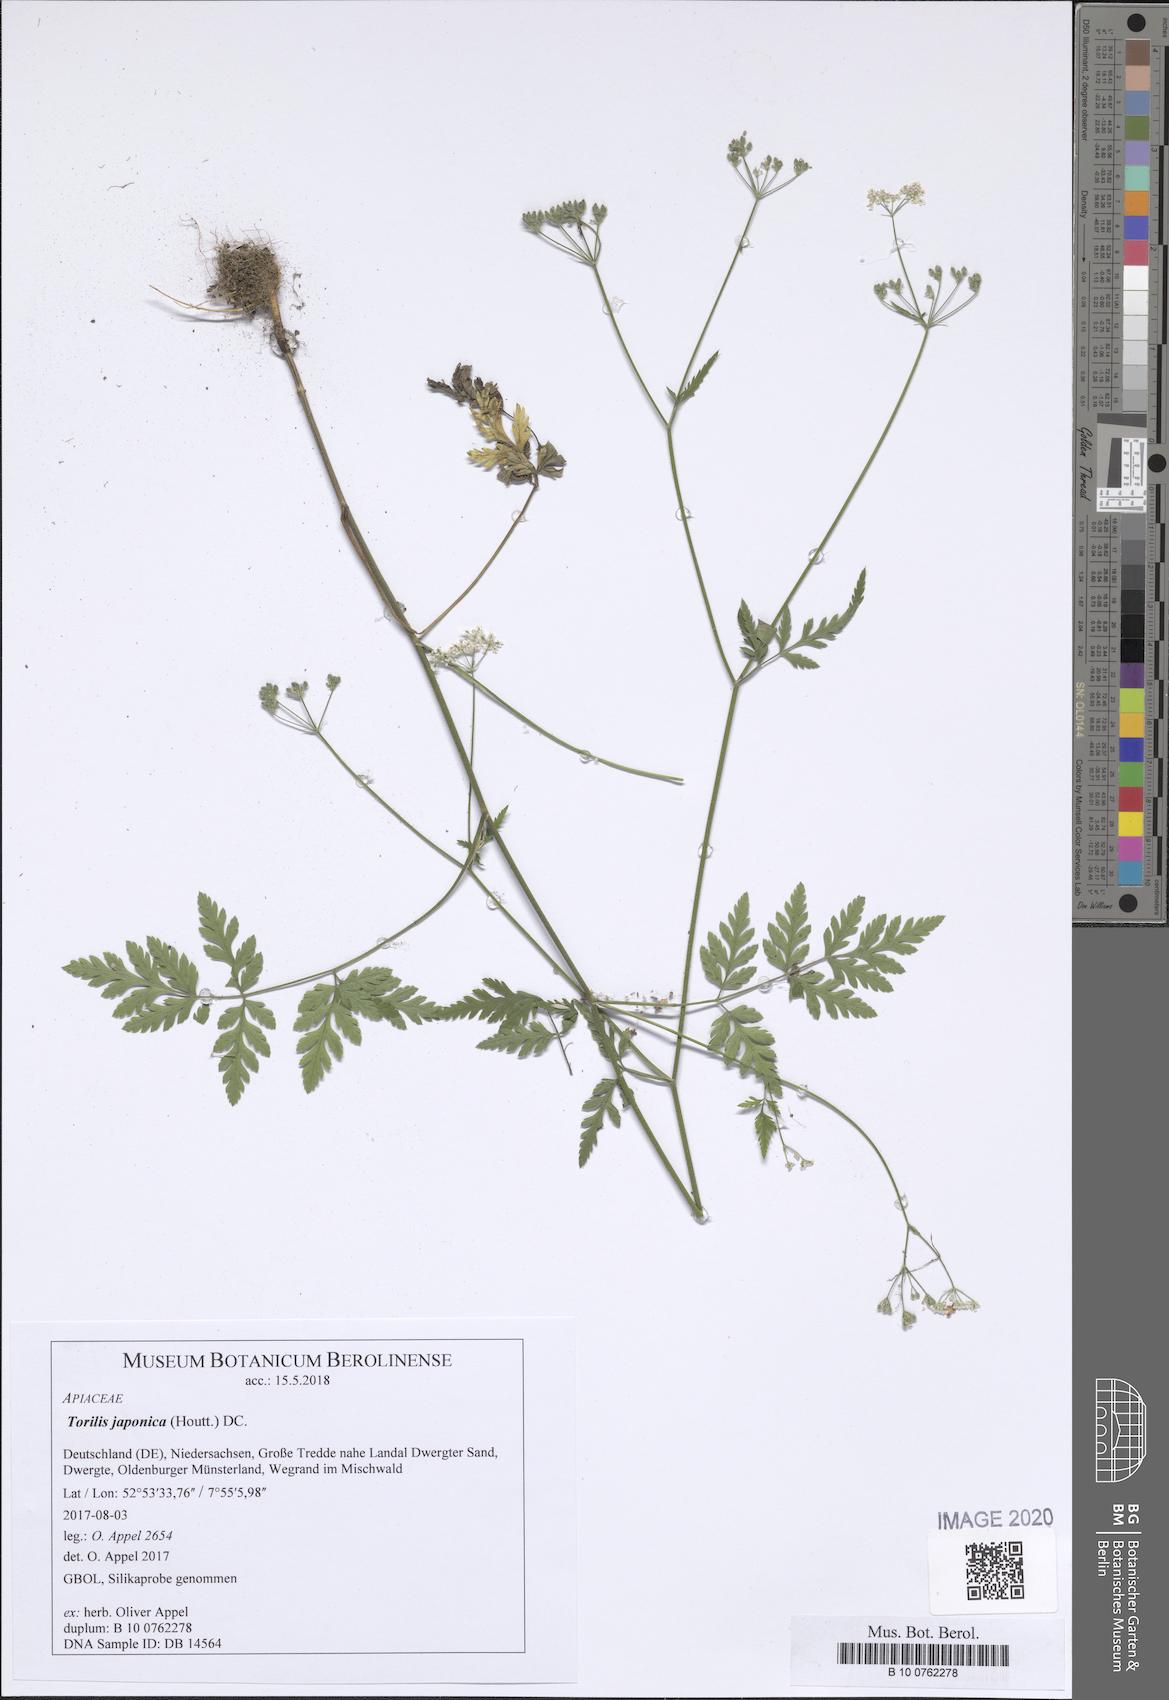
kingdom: Plantae
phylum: Tracheophyta
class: Lycopodiopsida
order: Isoetales
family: Isoetaceae
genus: Isoetes
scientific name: Isoetes duriei
